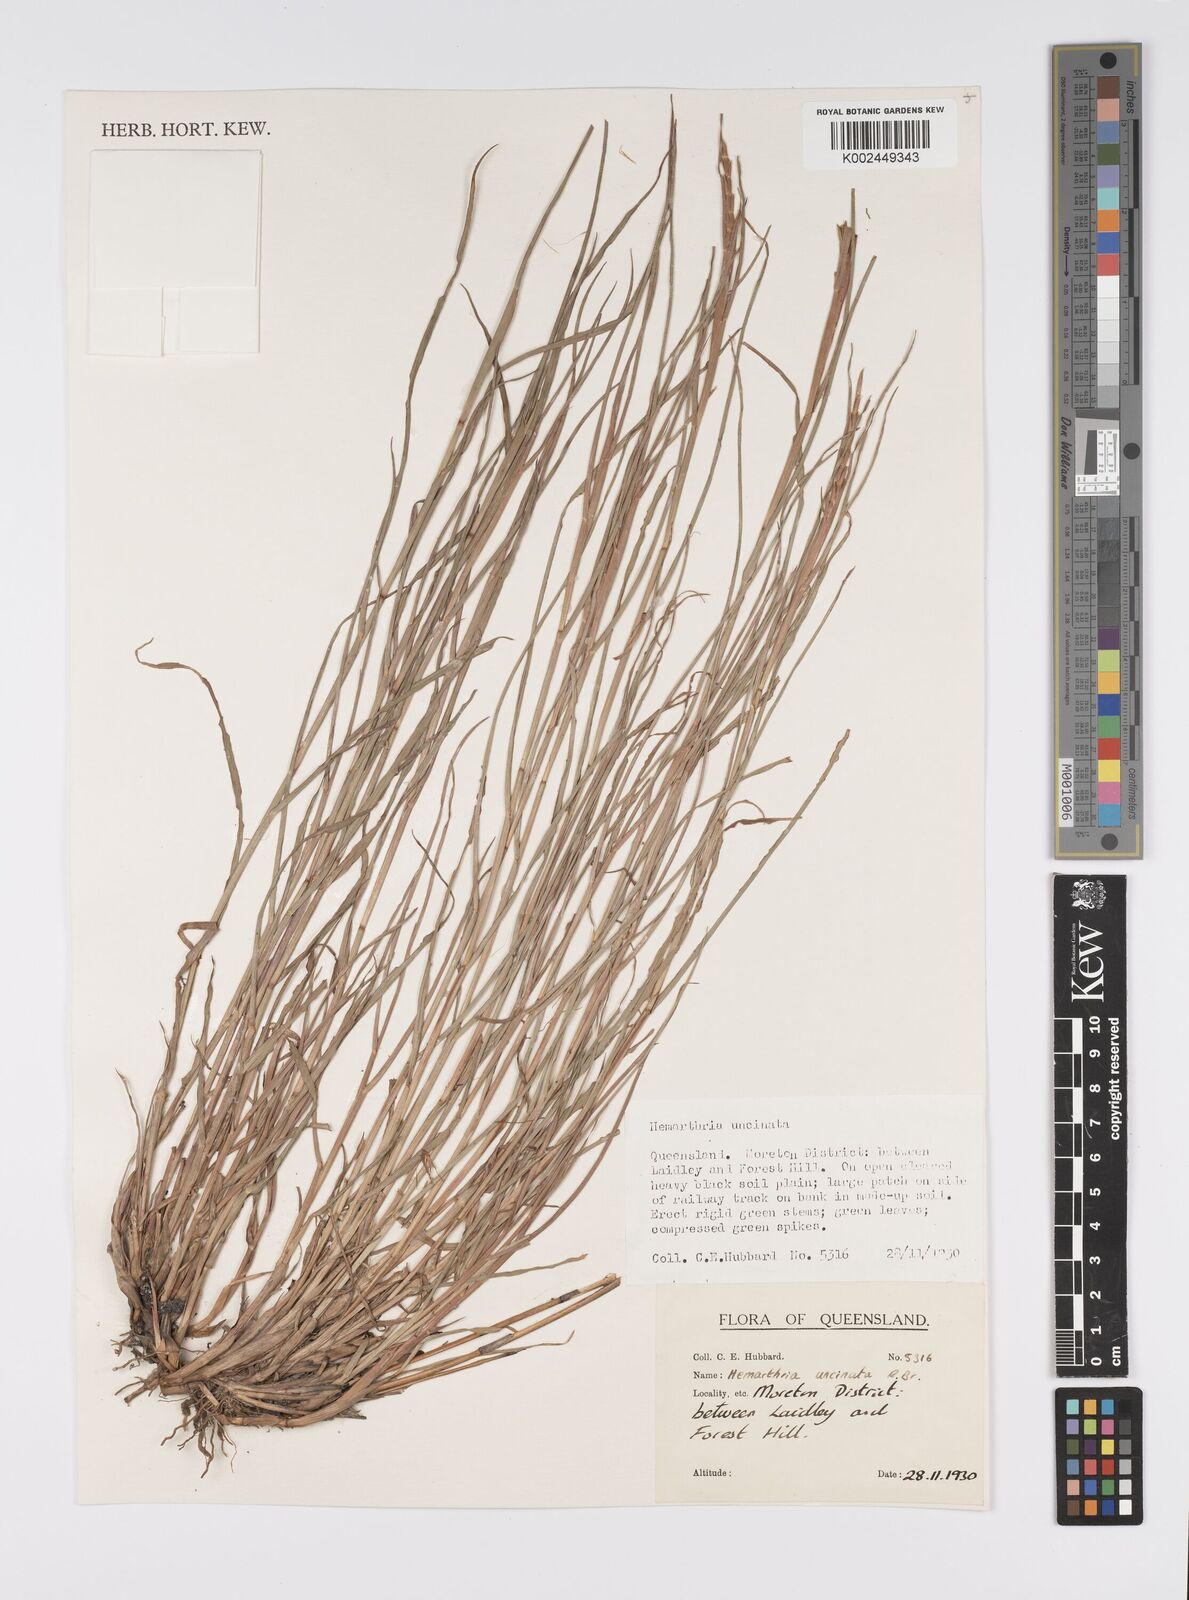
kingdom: Plantae
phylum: Tracheophyta
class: Liliopsida
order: Poales
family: Poaceae
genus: Hemarthria
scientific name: Hemarthria uncinata
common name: Matgrass
